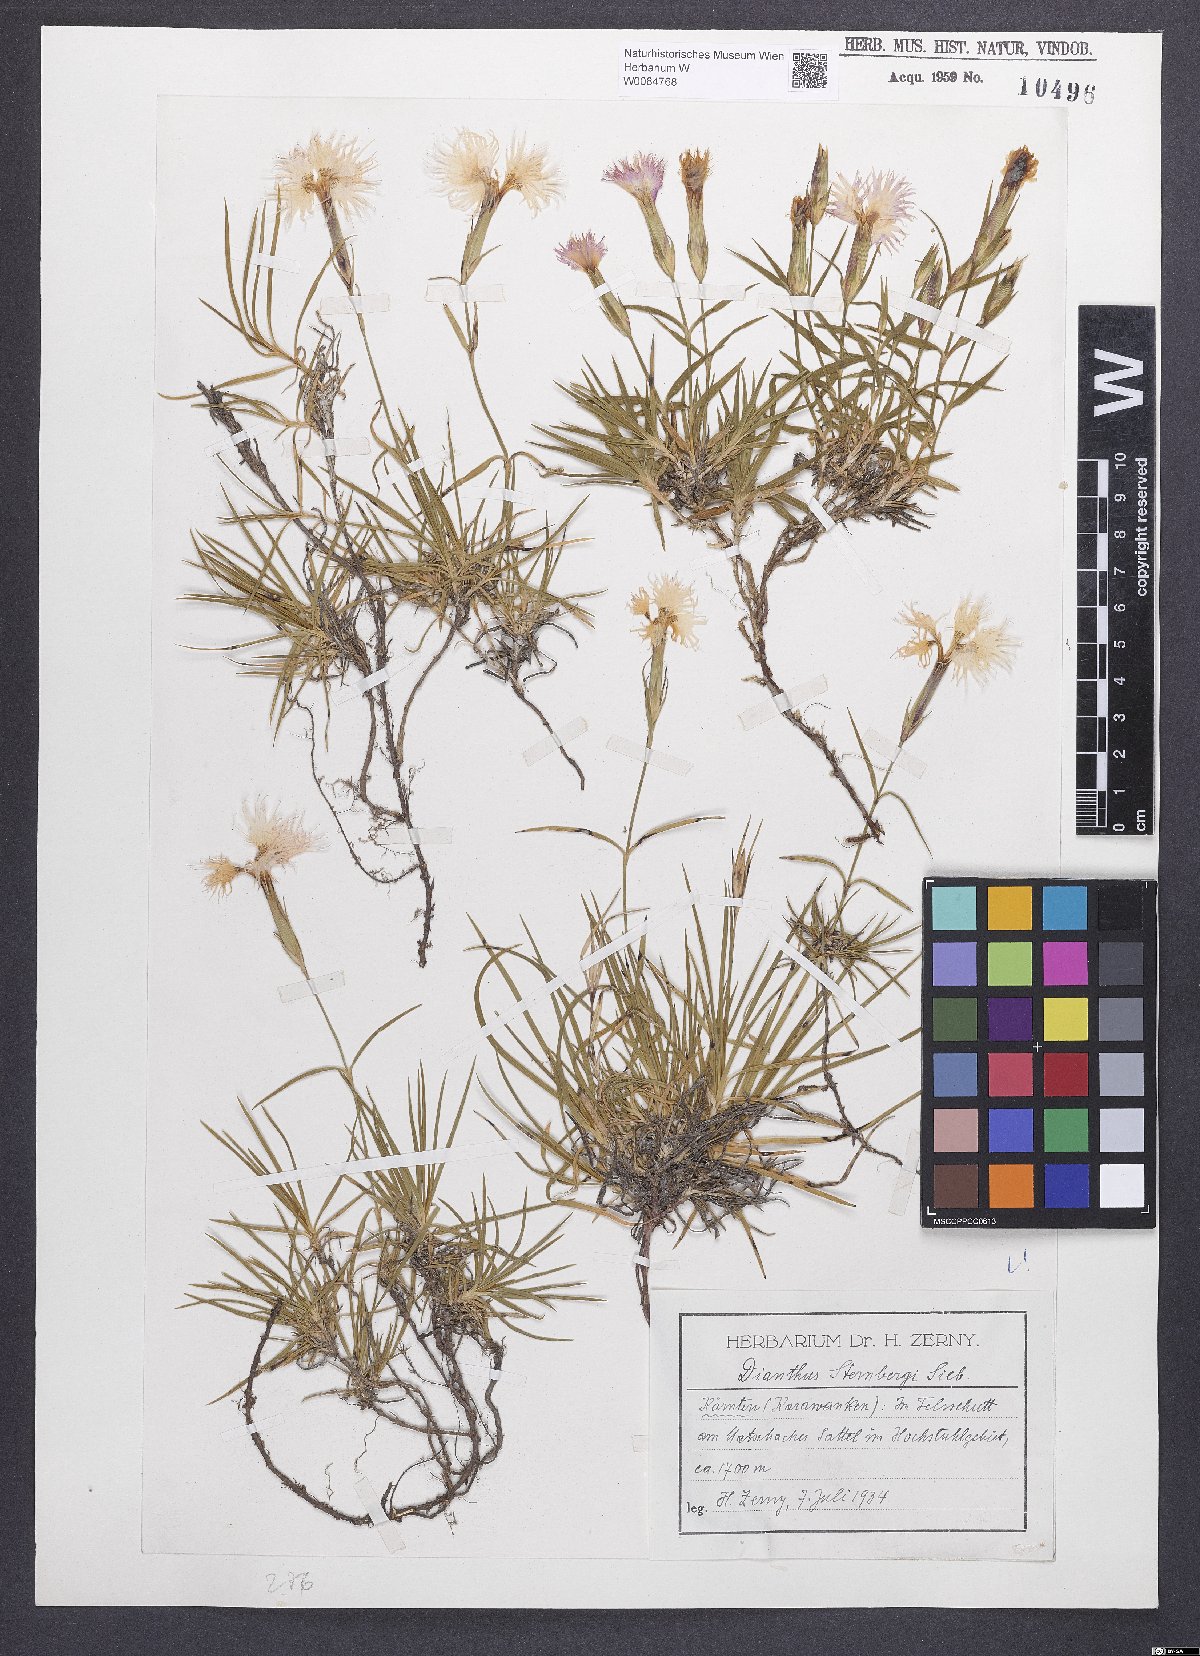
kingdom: Plantae
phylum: Tracheophyta
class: Magnoliopsida
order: Caryophyllales
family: Caryophyllaceae
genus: Dianthus
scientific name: Dianthus monspessulanus
